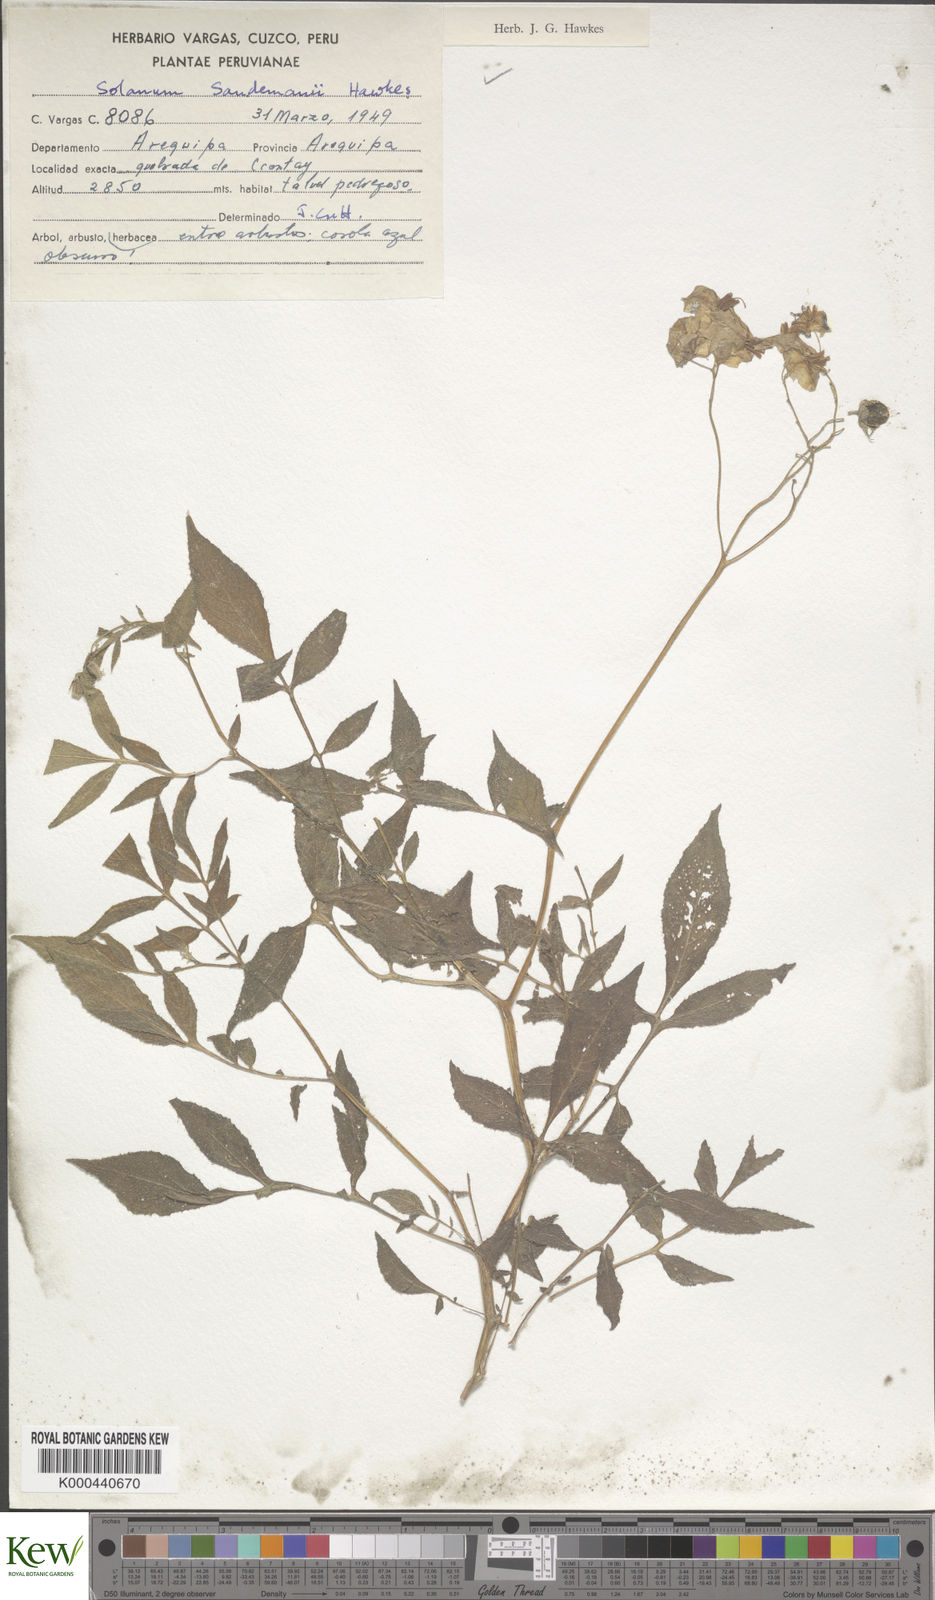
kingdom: Plantae
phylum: Tracheophyta
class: Magnoliopsida
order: Solanales
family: Solanaceae
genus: Solanum
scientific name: Solanum medians
